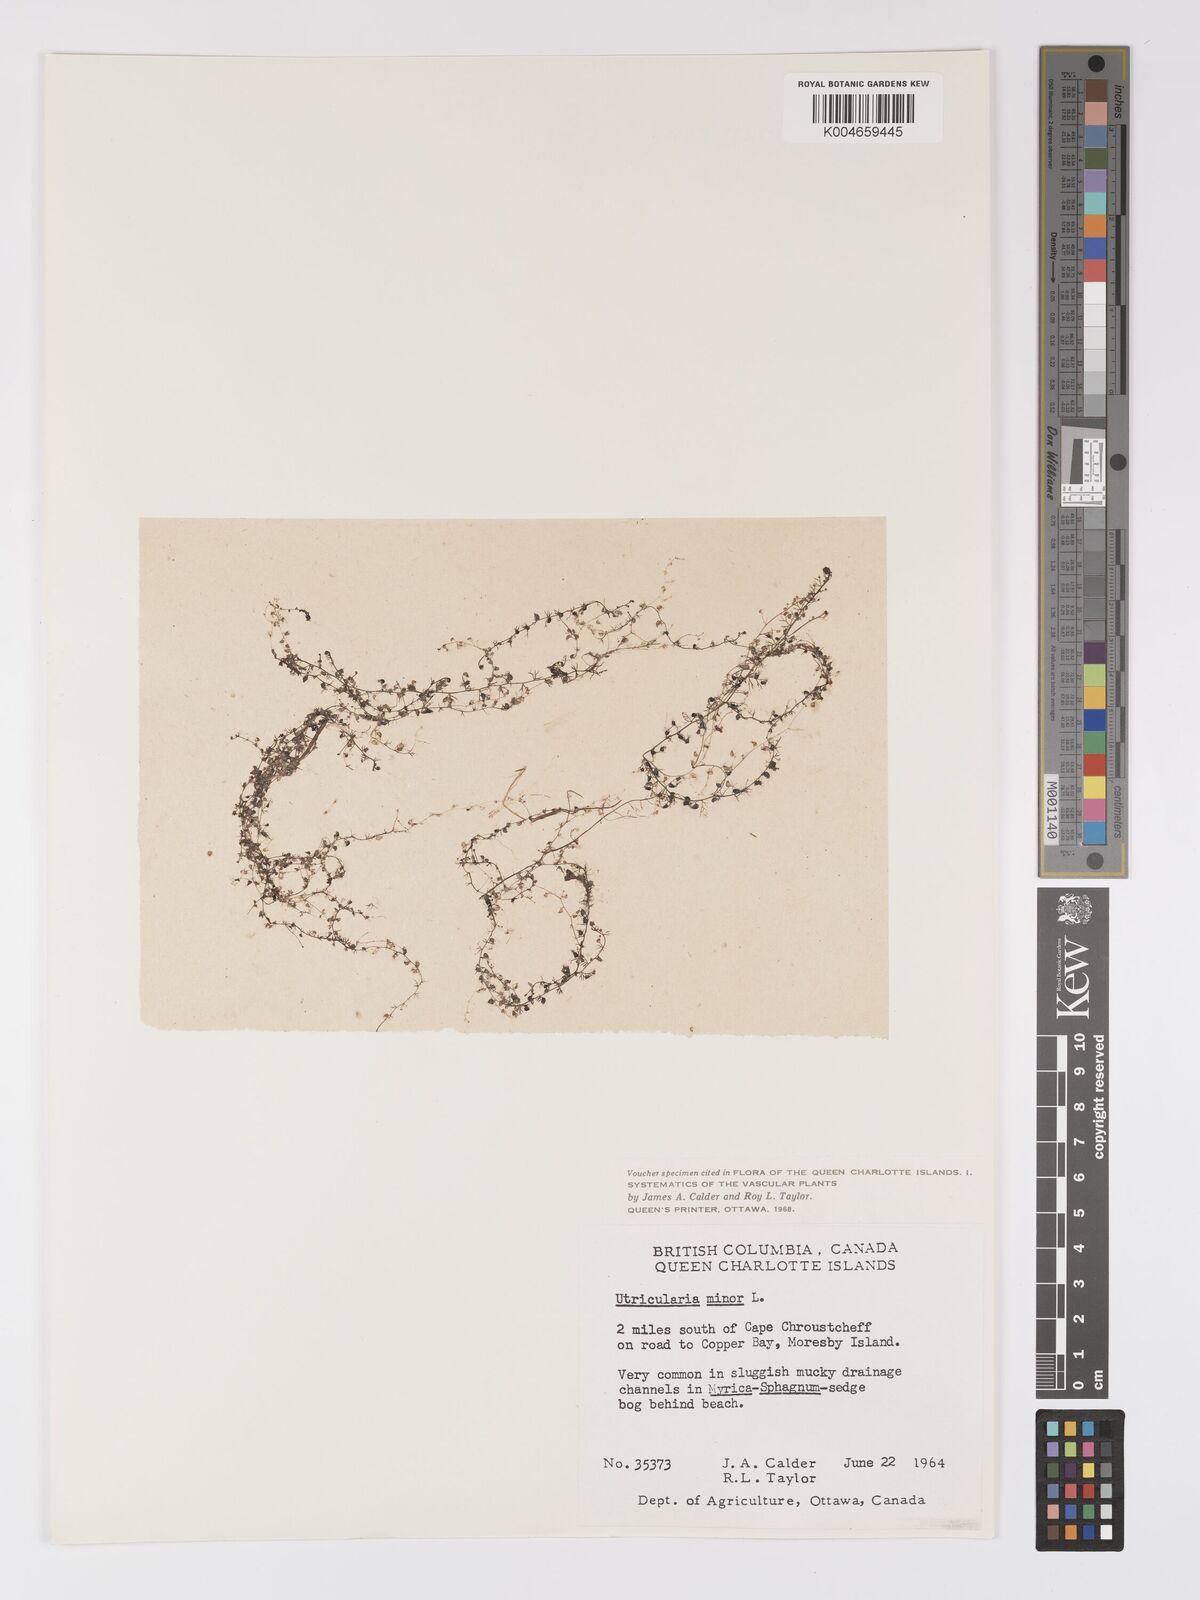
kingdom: Plantae
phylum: Tracheophyta
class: Magnoliopsida
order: Lamiales
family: Lentibulariaceae
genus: Utricularia
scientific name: Utricularia minor
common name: Lesser bladderwort
